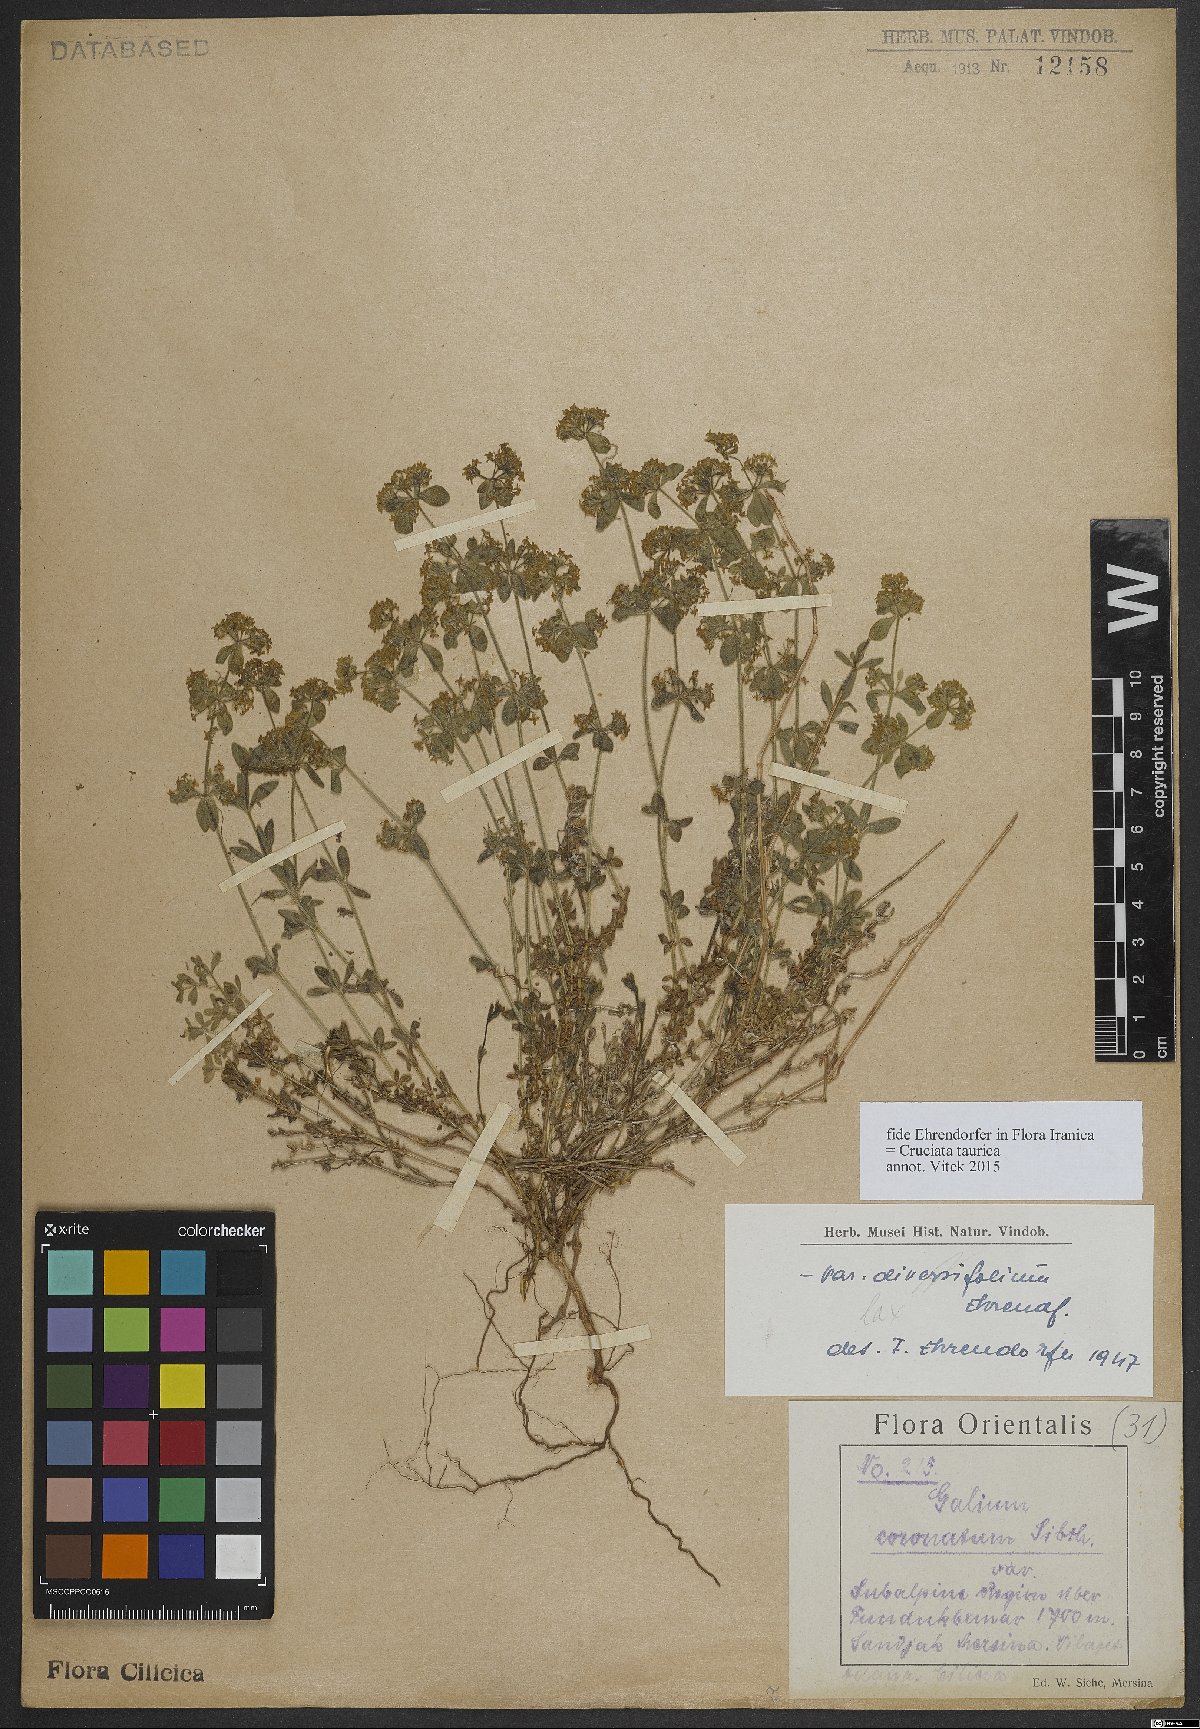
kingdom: Plantae
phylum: Tracheophyta
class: Magnoliopsida
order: Gentianales
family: Rubiaceae
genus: Cruciata
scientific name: Cruciata taurica
